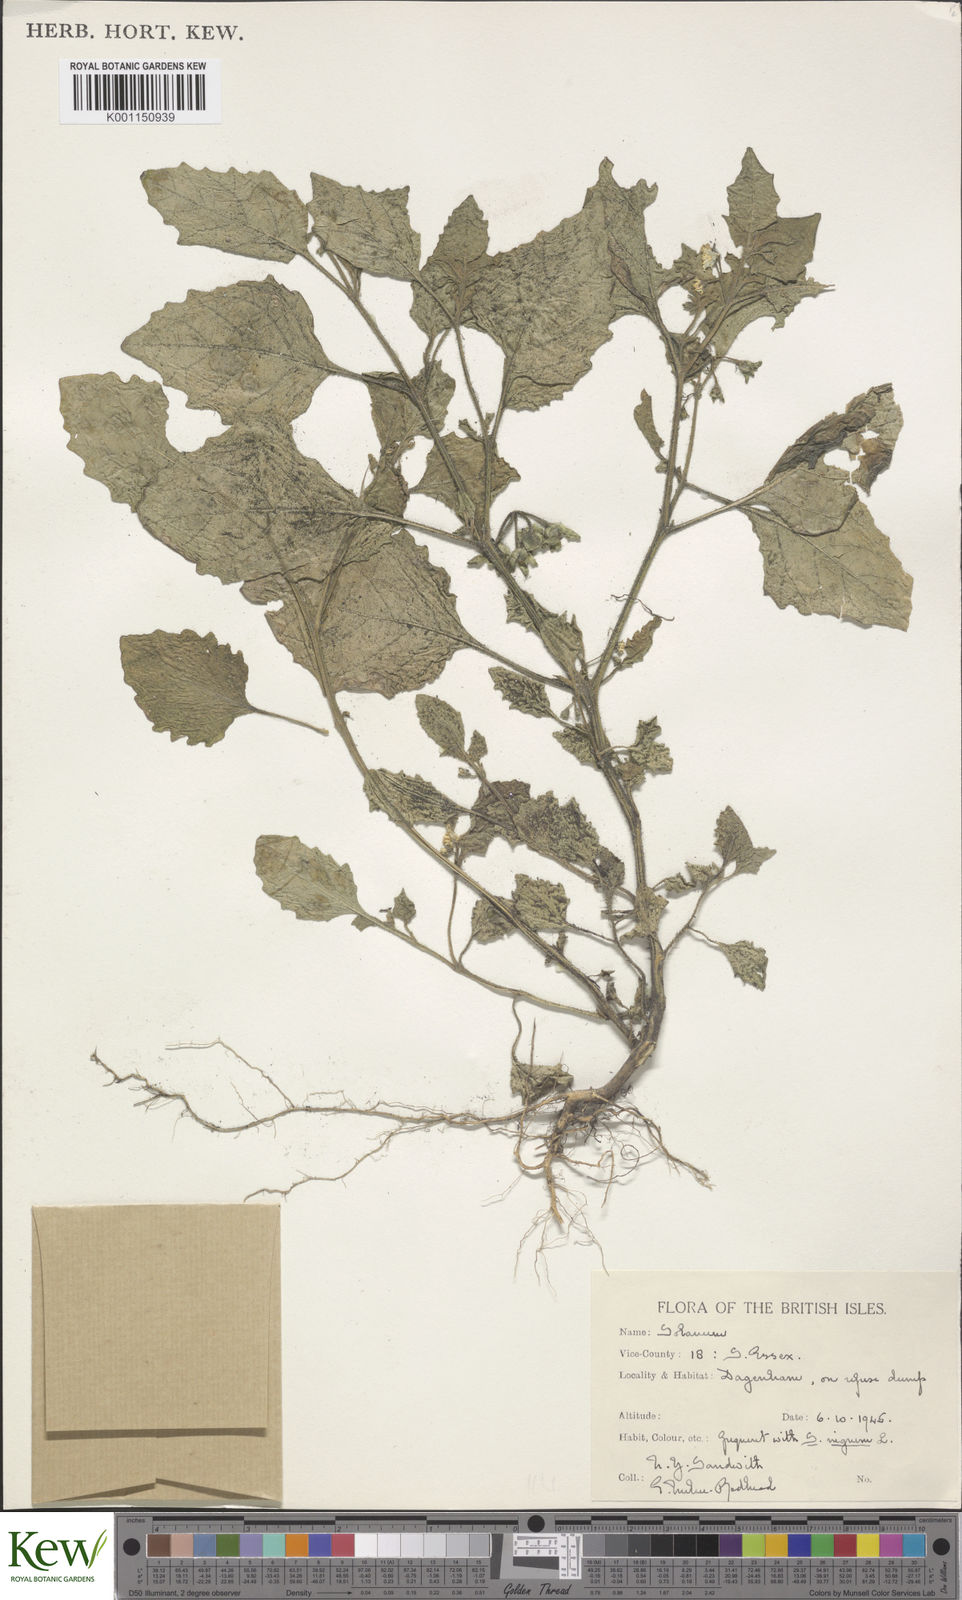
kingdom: Plantae
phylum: Tracheophyta
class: Magnoliopsida
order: Solanales
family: Solanaceae
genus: Solanum
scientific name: Solanum sarrachoides
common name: Leafy-fruited nightshade
